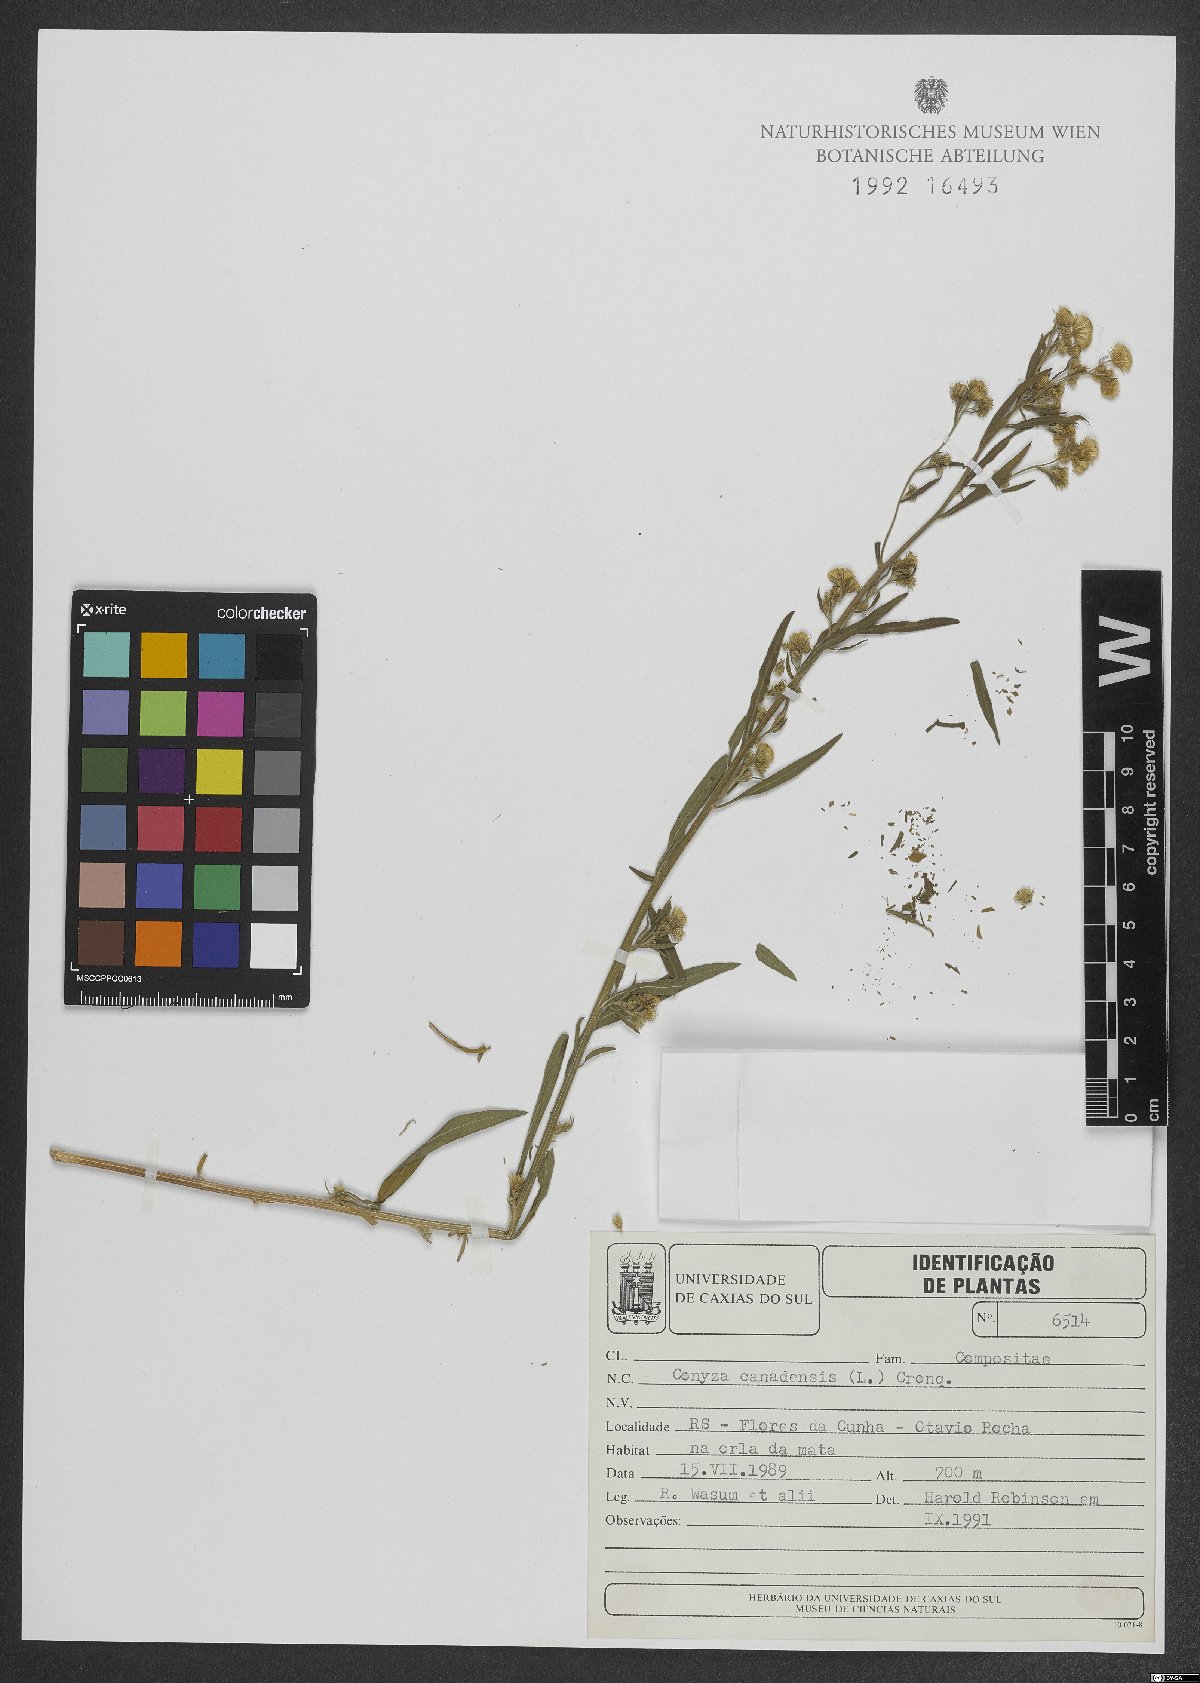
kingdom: Plantae
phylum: Tracheophyta
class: Magnoliopsida
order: Asterales
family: Asteraceae
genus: Erigeron
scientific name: Erigeron canadensis
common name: Canadian fleabane
